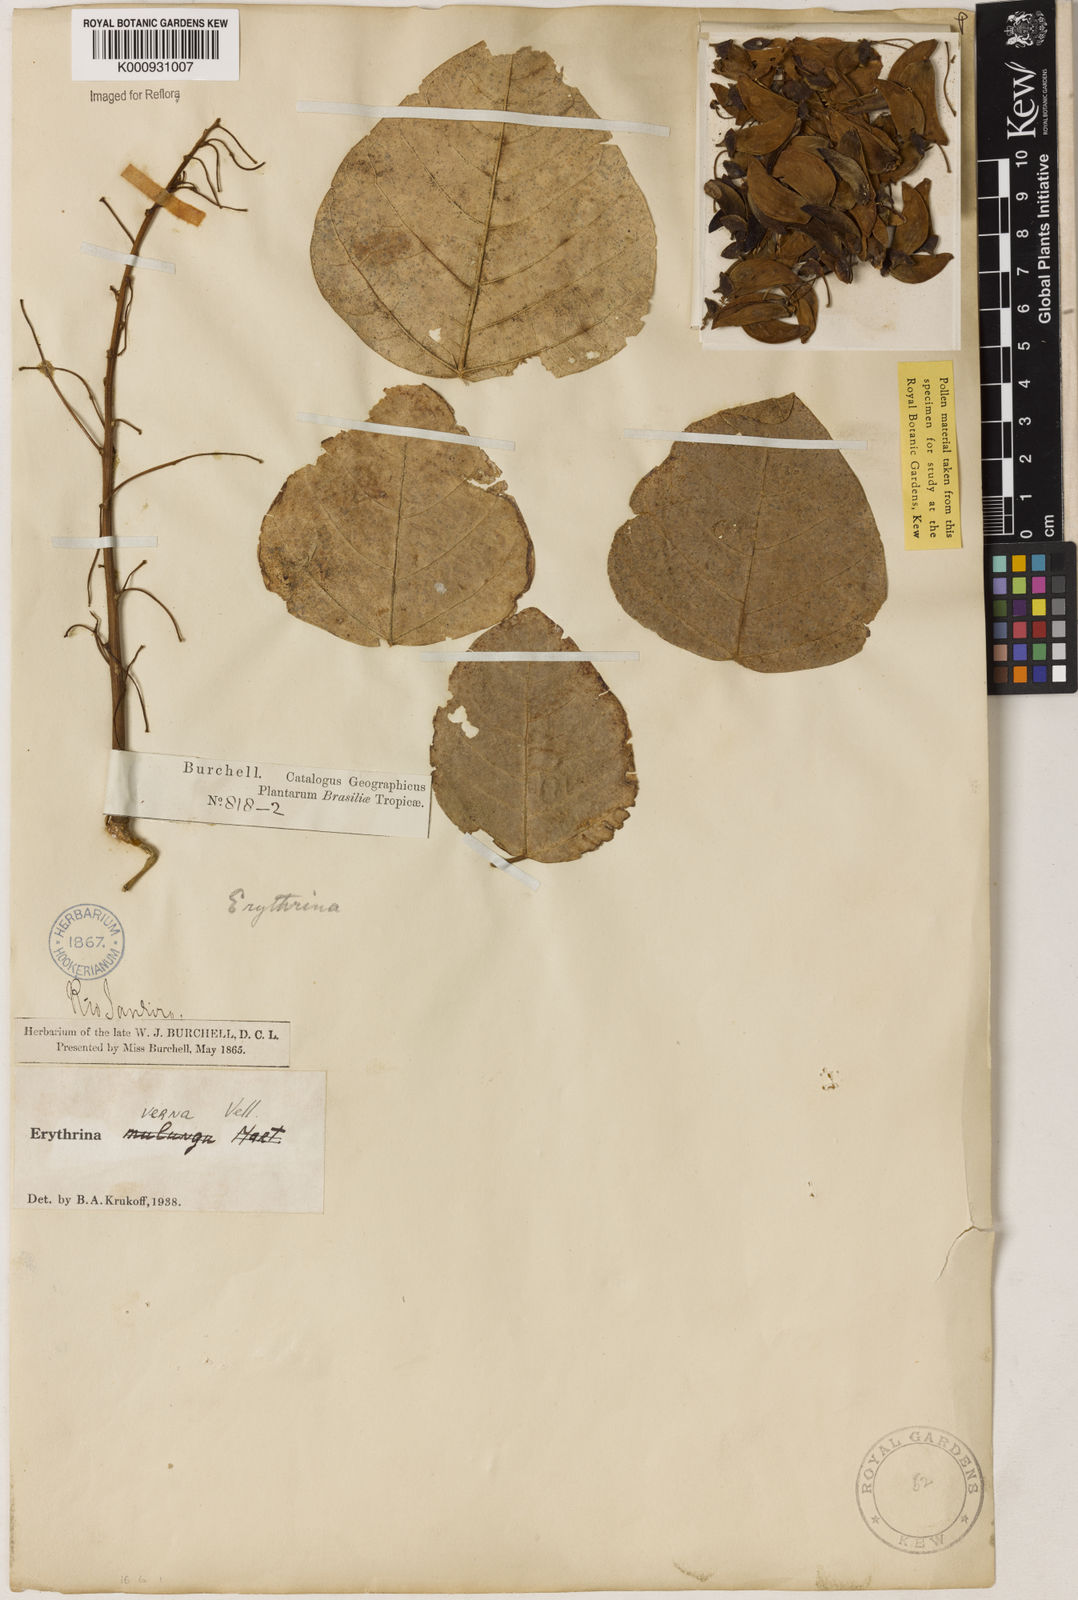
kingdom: Plantae
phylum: Tracheophyta
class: Magnoliopsida
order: Fabales
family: Fabaceae
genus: Erythrina
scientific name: Erythrina verna
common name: Mulungú
